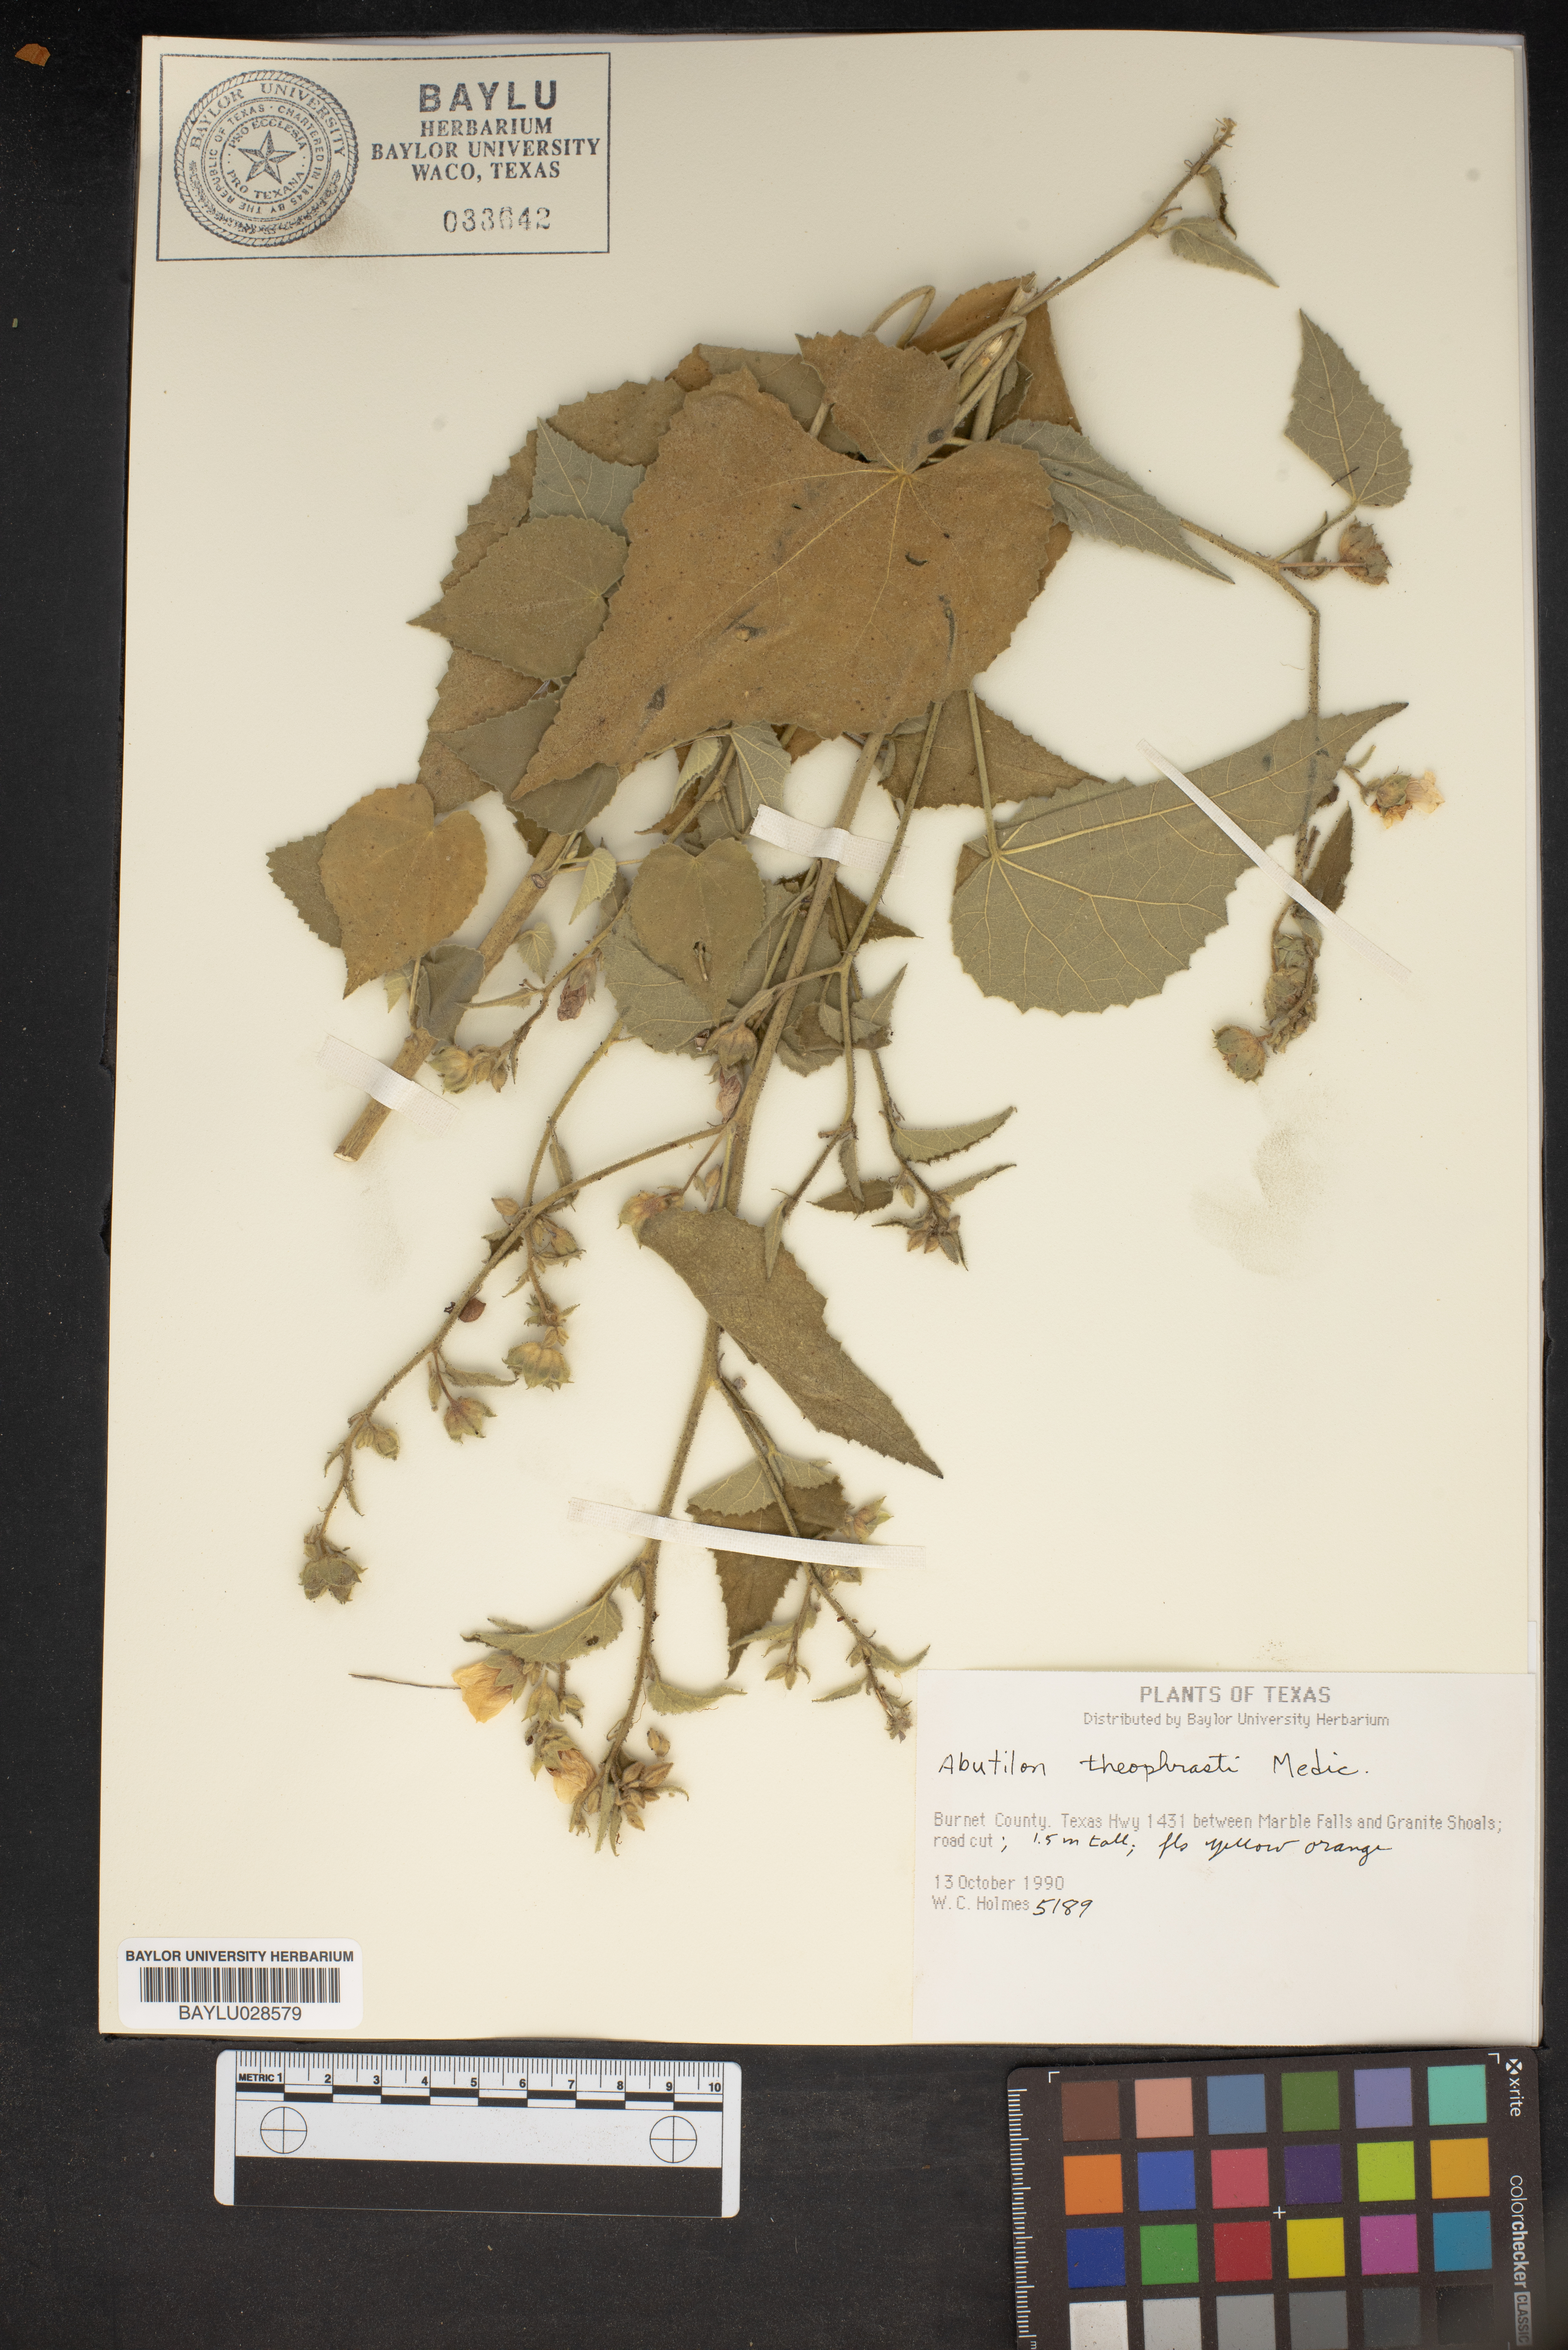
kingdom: Plantae
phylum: Tracheophyta
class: Magnoliopsida
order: Malvales
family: Malvaceae
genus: Abutilon
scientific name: Abutilon theophrasti
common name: Velvetleaf
